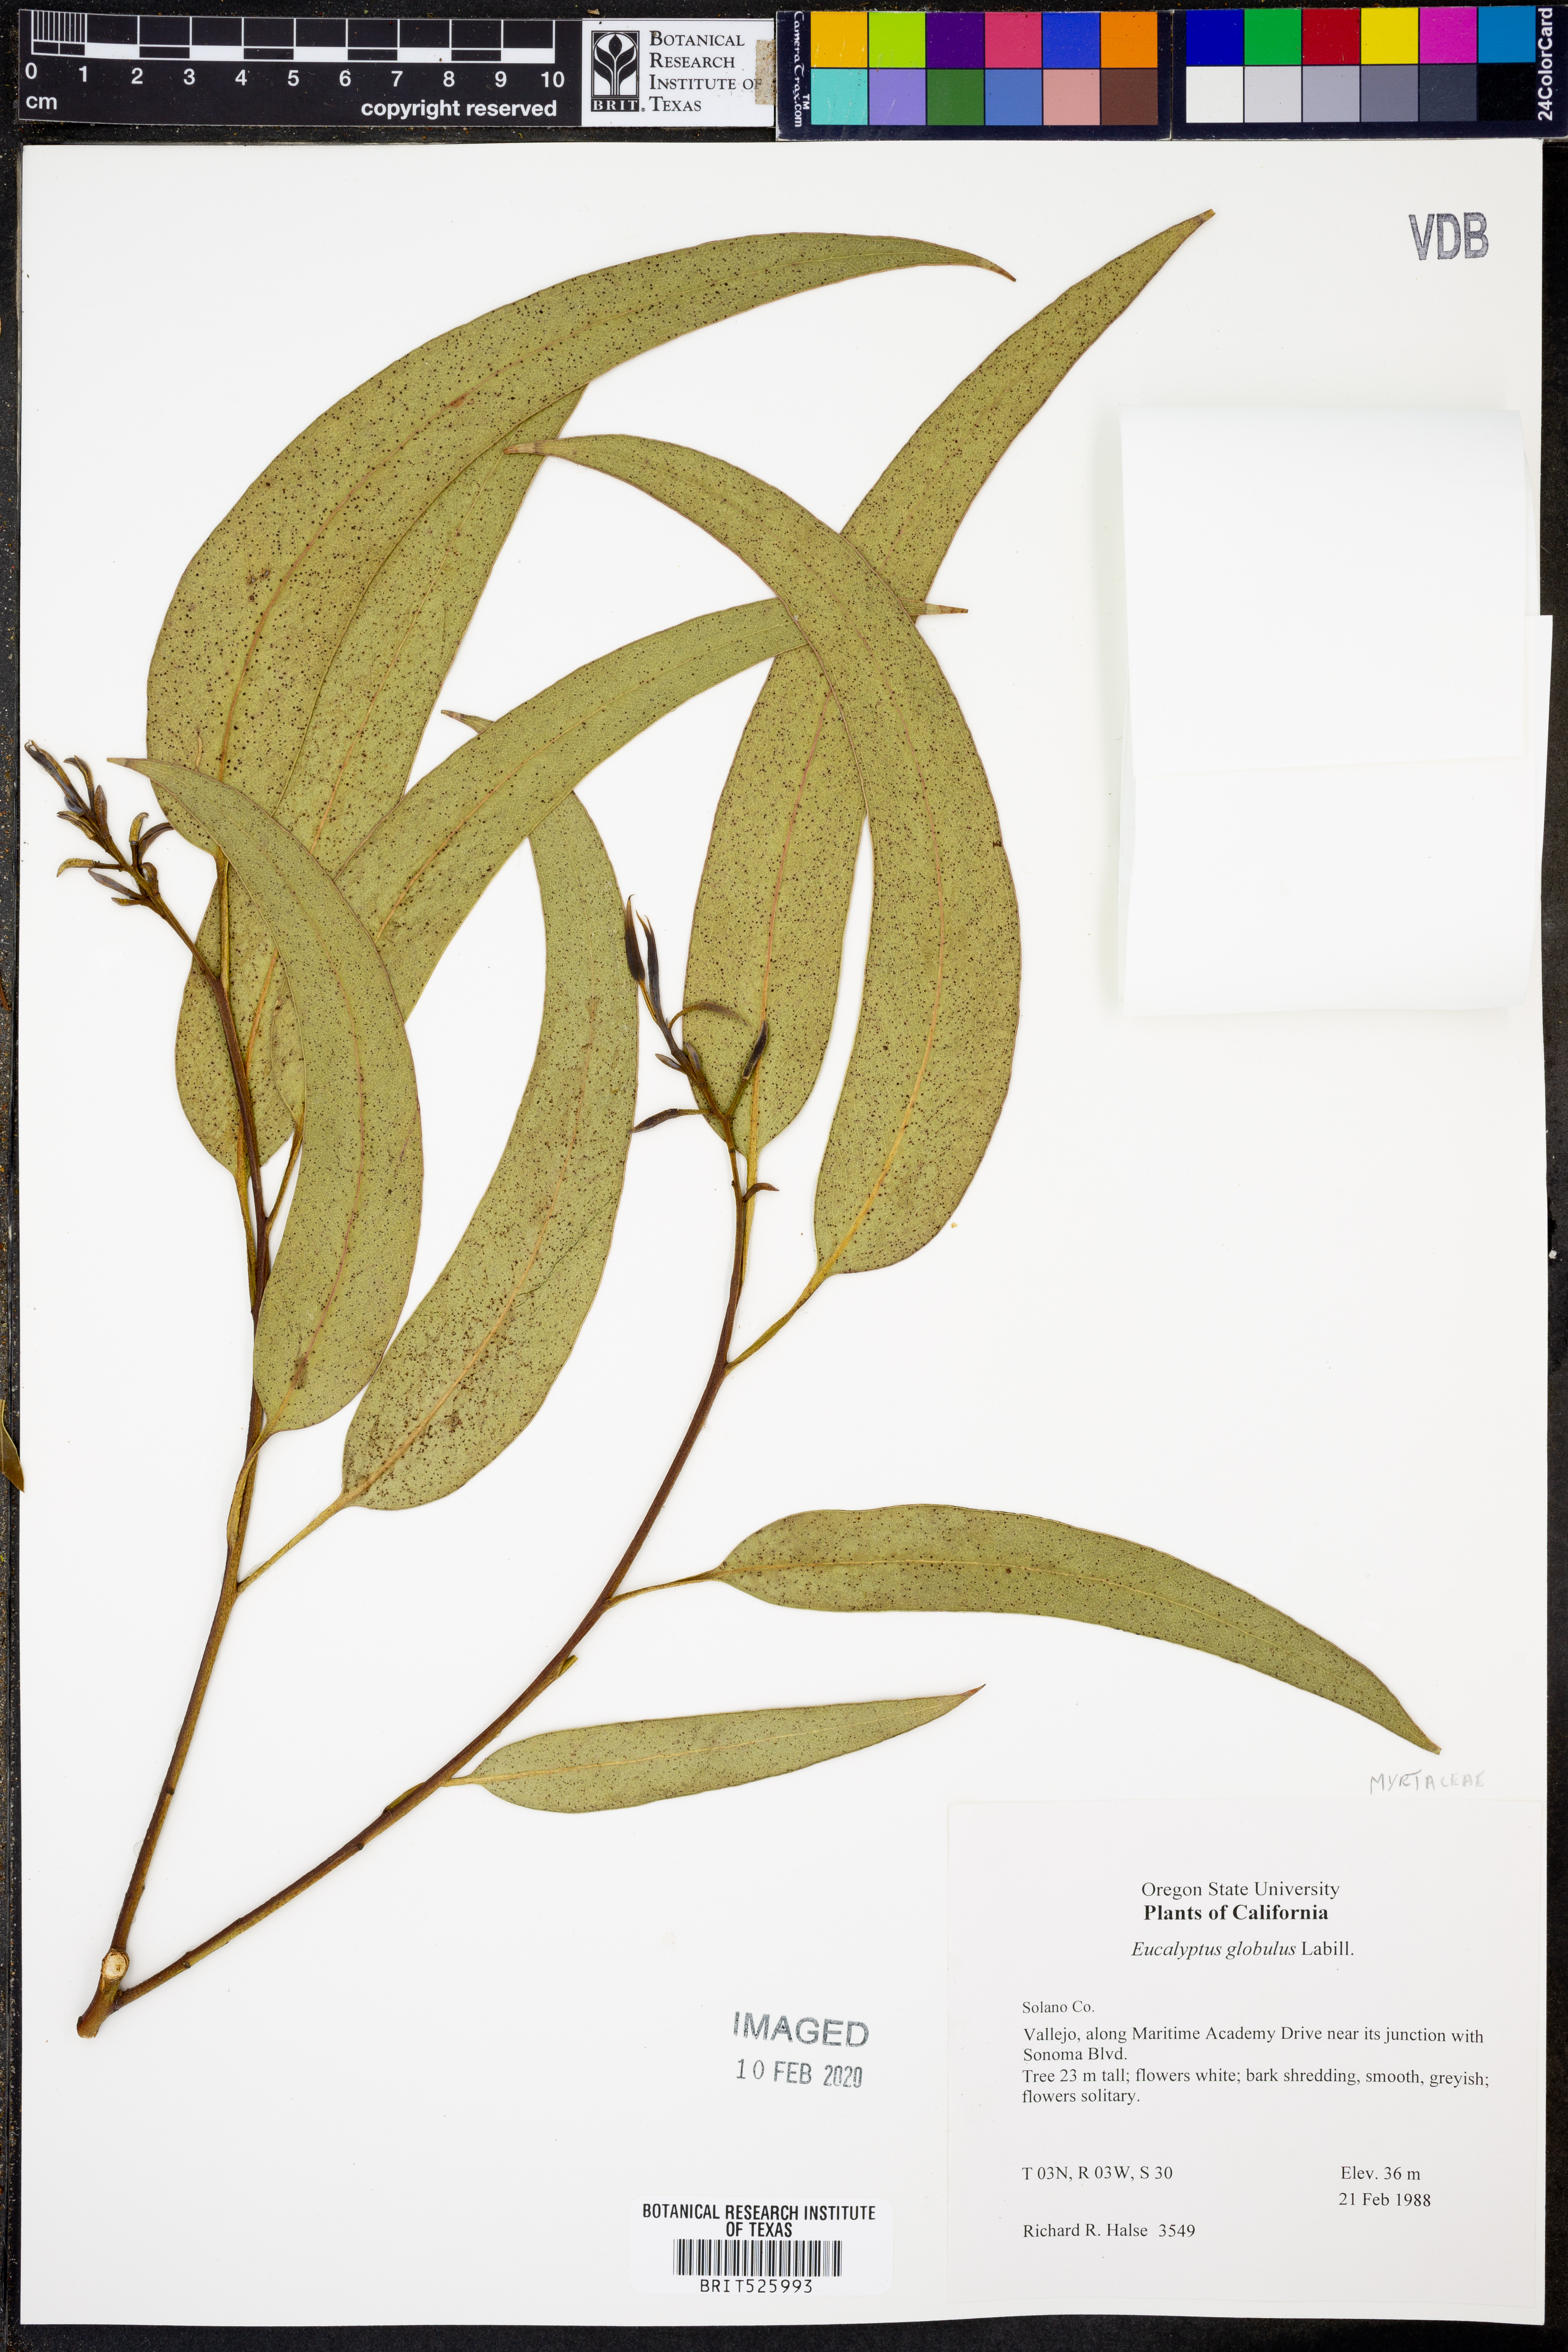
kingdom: Plantae
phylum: Tracheophyta
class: Magnoliopsida
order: Myrtales
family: Myrtaceae
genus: Eucalyptus
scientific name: Eucalyptus globulus
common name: Southern blue-gum
